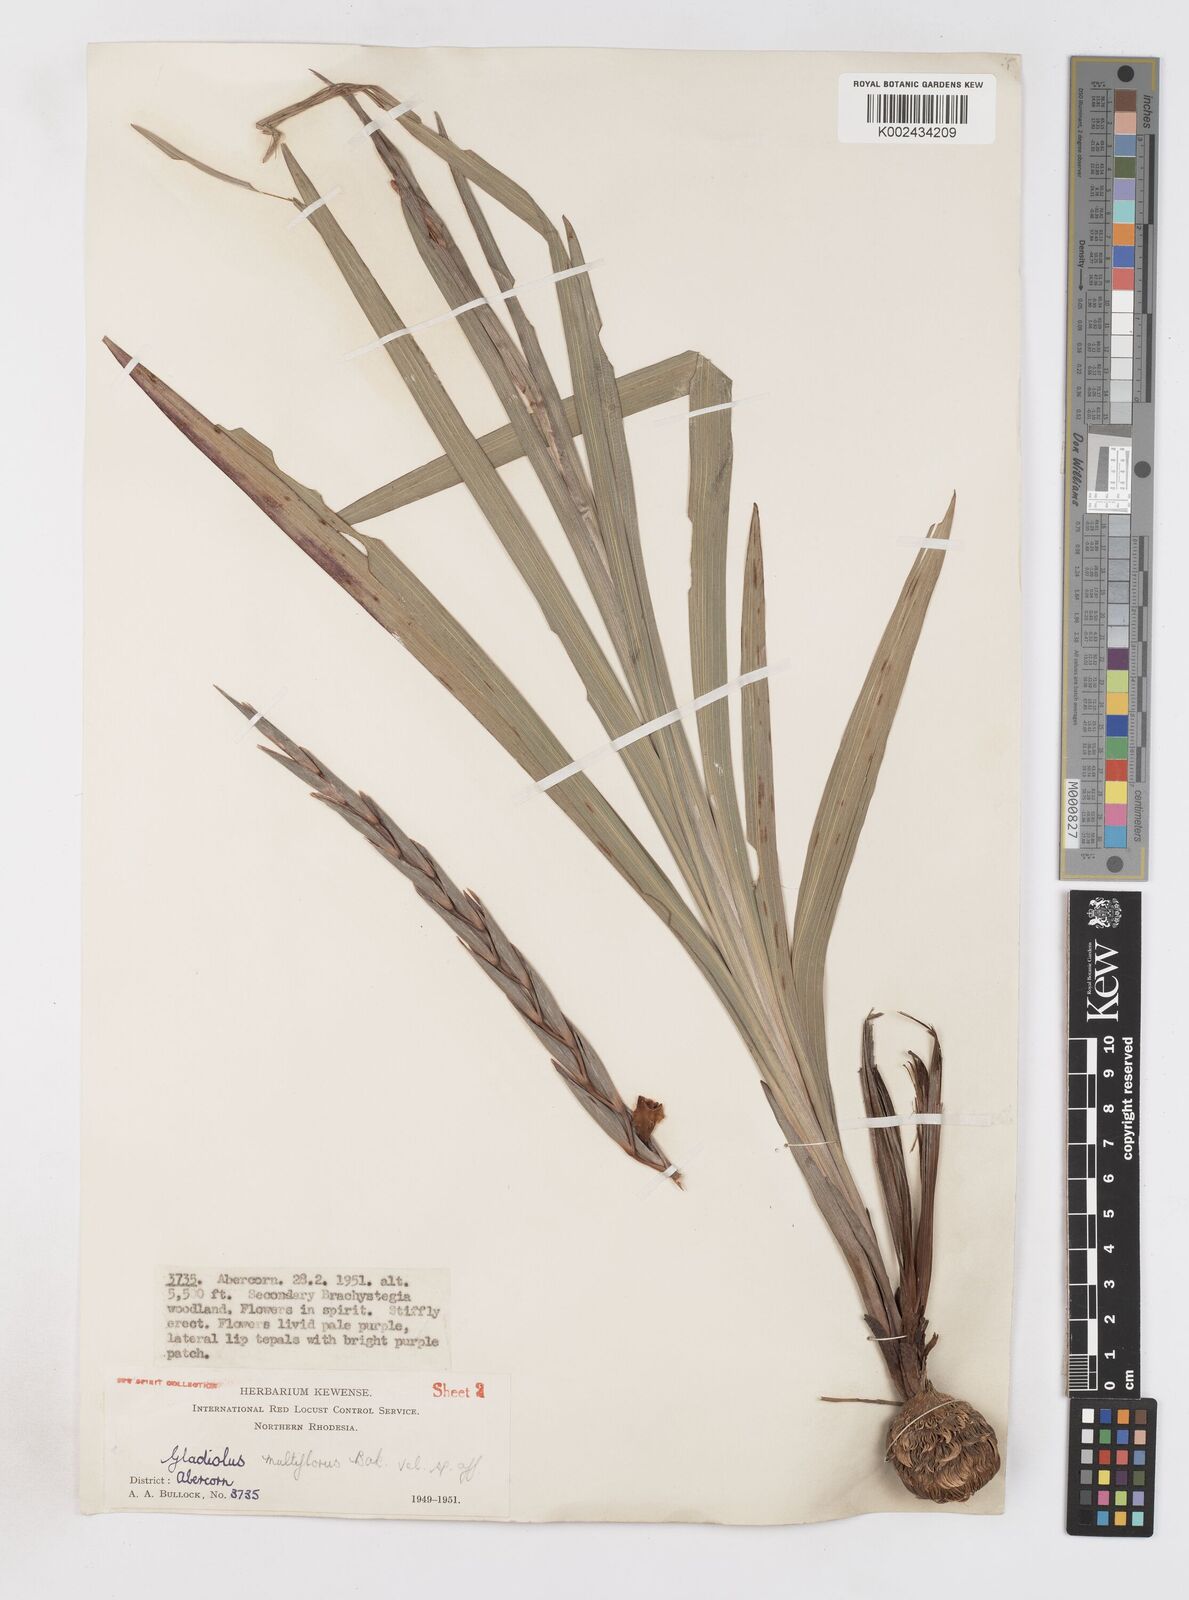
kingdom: Plantae
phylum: Tracheophyta
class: Liliopsida
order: Asparagales
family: Iridaceae
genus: Gladiolus
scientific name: Gladiolus gregarius
